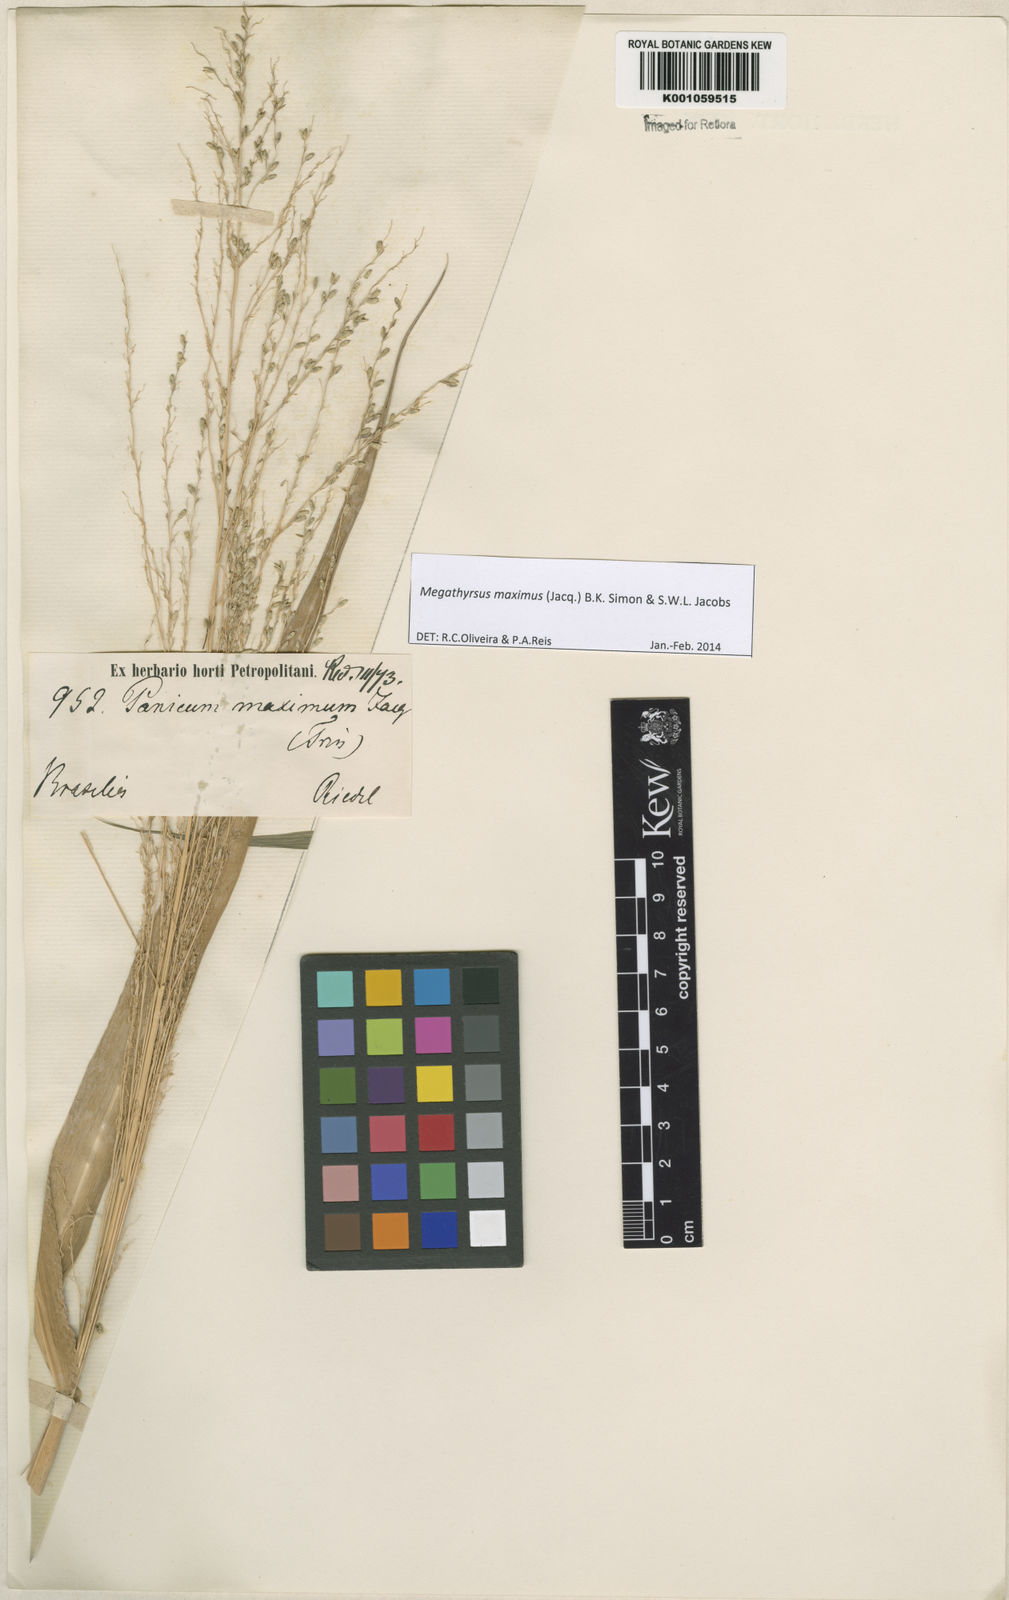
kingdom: Plantae
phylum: Tracheophyta
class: Liliopsida
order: Poales
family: Poaceae
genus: Megathyrsus
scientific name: Megathyrsus maximus
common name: Guineagrass
